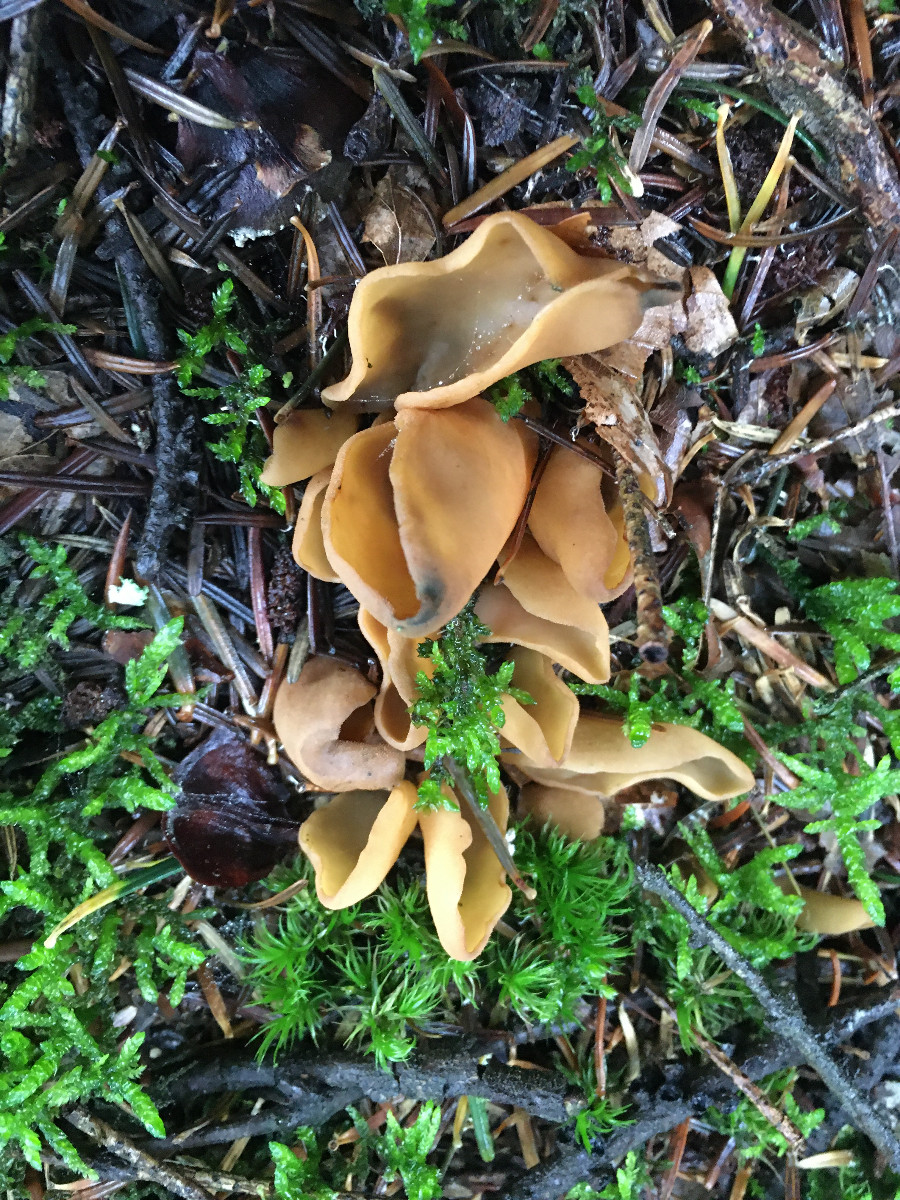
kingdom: Fungi
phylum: Ascomycota
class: Pezizomycetes
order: Pezizales
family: Otideaceae
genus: Otidea
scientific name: Otidea
